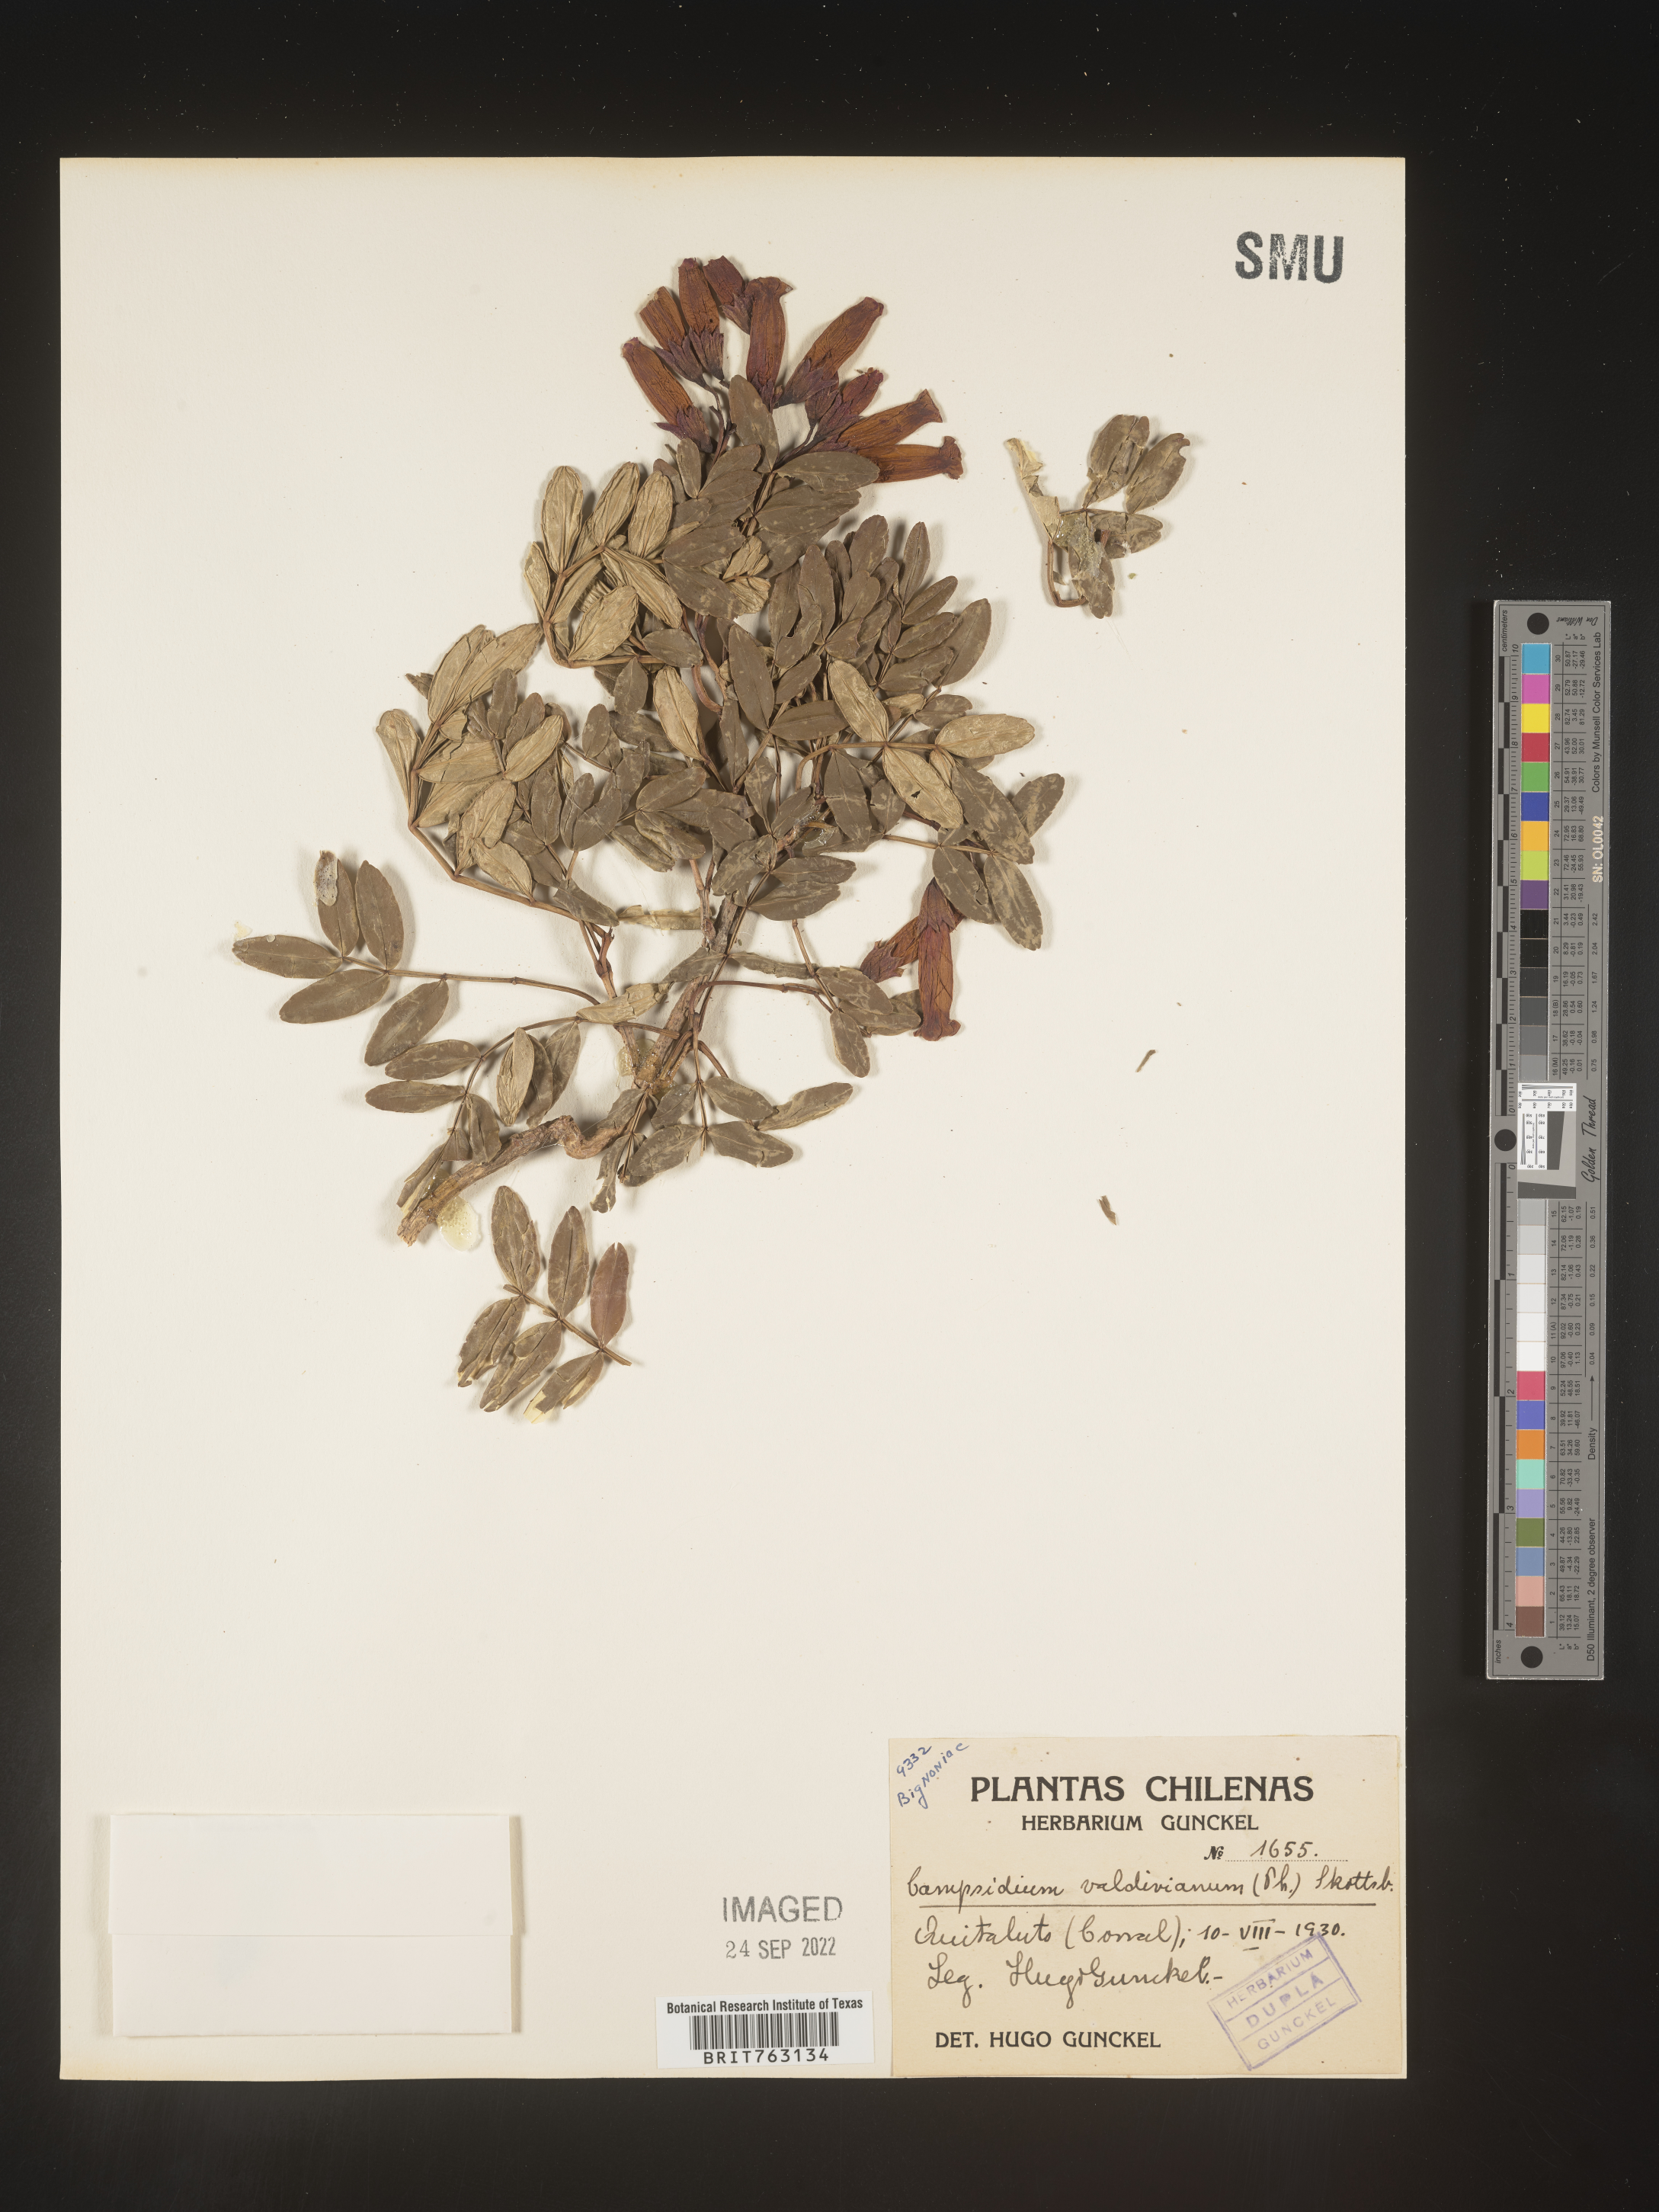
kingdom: Plantae
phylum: Tracheophyta
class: Magnoliopsida
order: Lamiales
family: Bignoniaceae
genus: Campsidium
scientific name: Campsidium valdivianum
